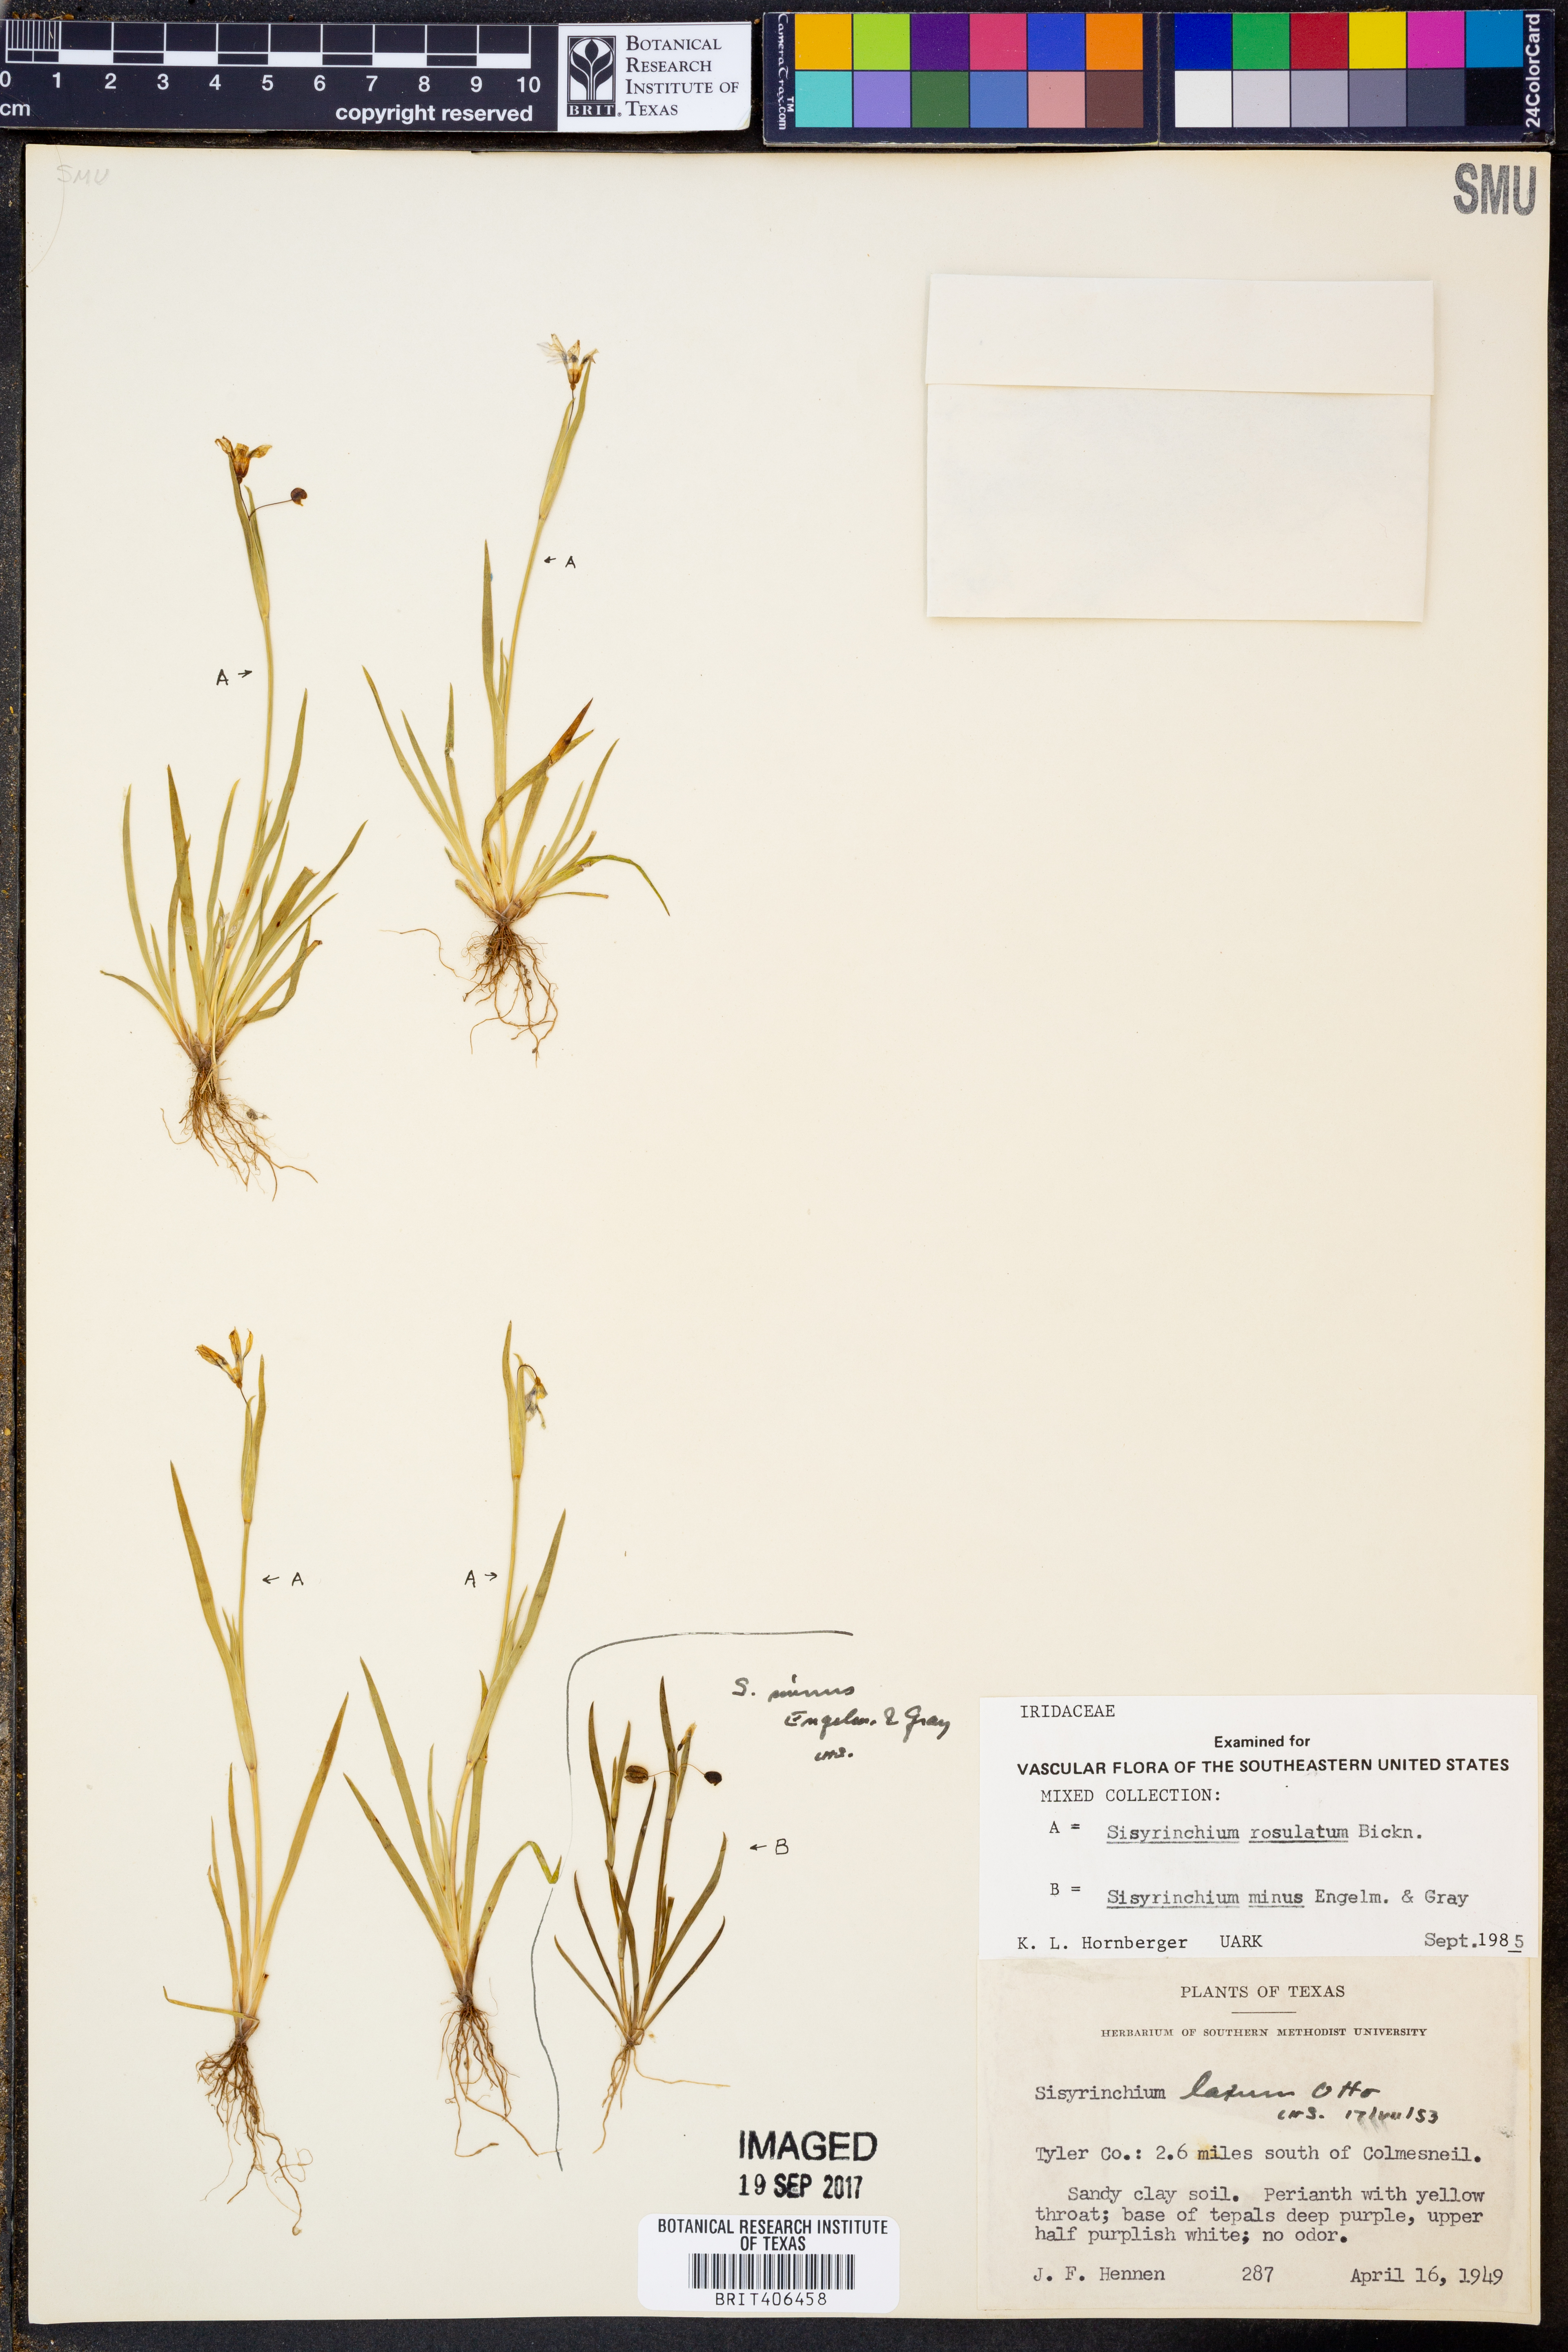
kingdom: Plantae
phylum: Tracheophyta
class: Liliopsida
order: Asparagales
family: Iridaceae
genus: Sisyrinchium
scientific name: Sisyrinchium rosulatum
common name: Annual blue-eyed grass
